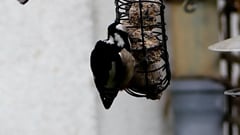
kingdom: Animalia
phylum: Chordata
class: Aves
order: Piciformes
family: Picidae
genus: Dendrocopos
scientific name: Dendrocopos major
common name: Great spotted woodpecker
